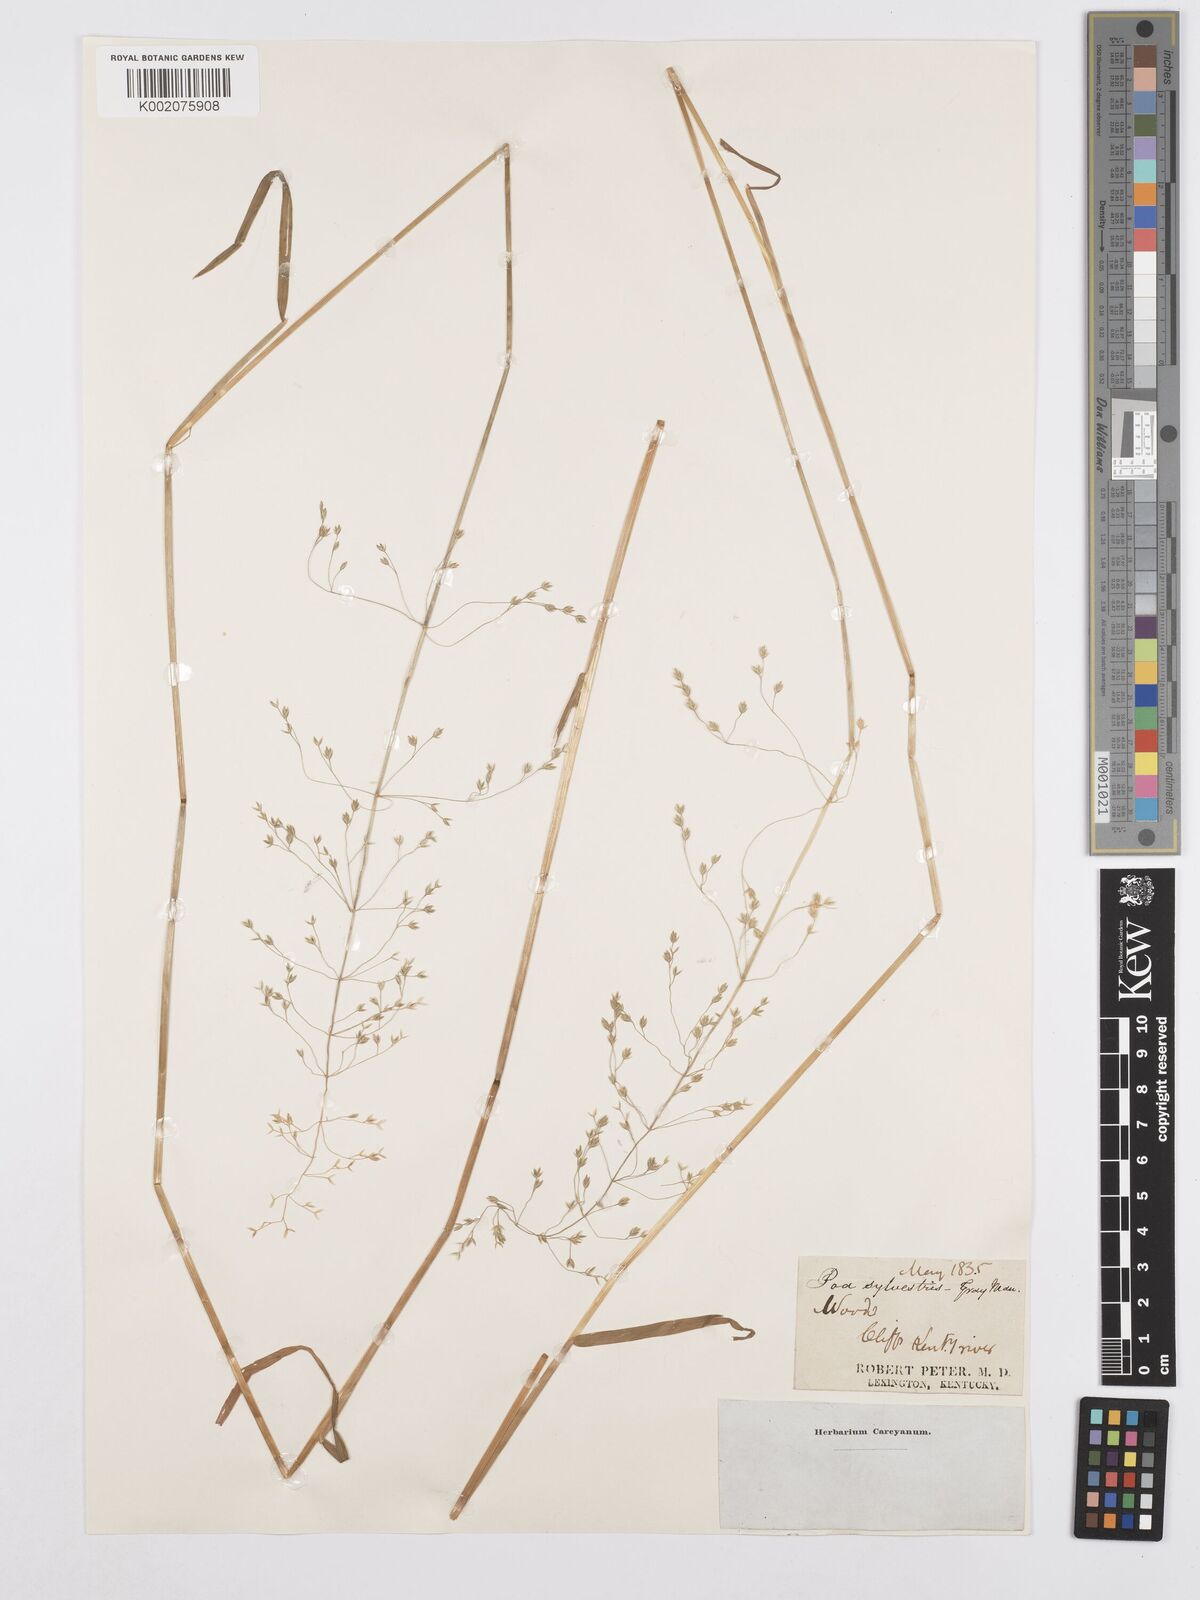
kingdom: Plantae
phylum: Tracheophyta
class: Liliopsida
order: Poales
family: Poaceae
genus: Poa
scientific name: Poa sylvestris
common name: North american woodland bluegrass
